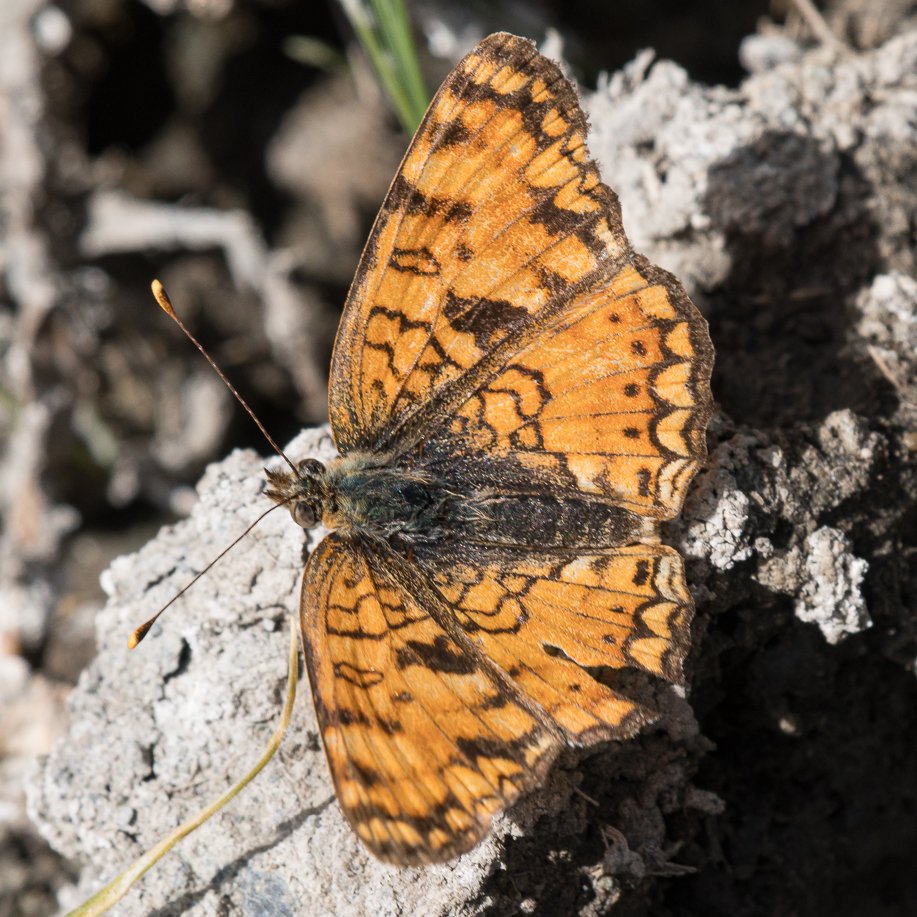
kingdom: Animalia
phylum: Arthropoda
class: Insecta
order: Lepidoptera
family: Nymphalidae
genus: Phyciodes
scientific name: Phyciodes pallida
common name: Pale Crescent
